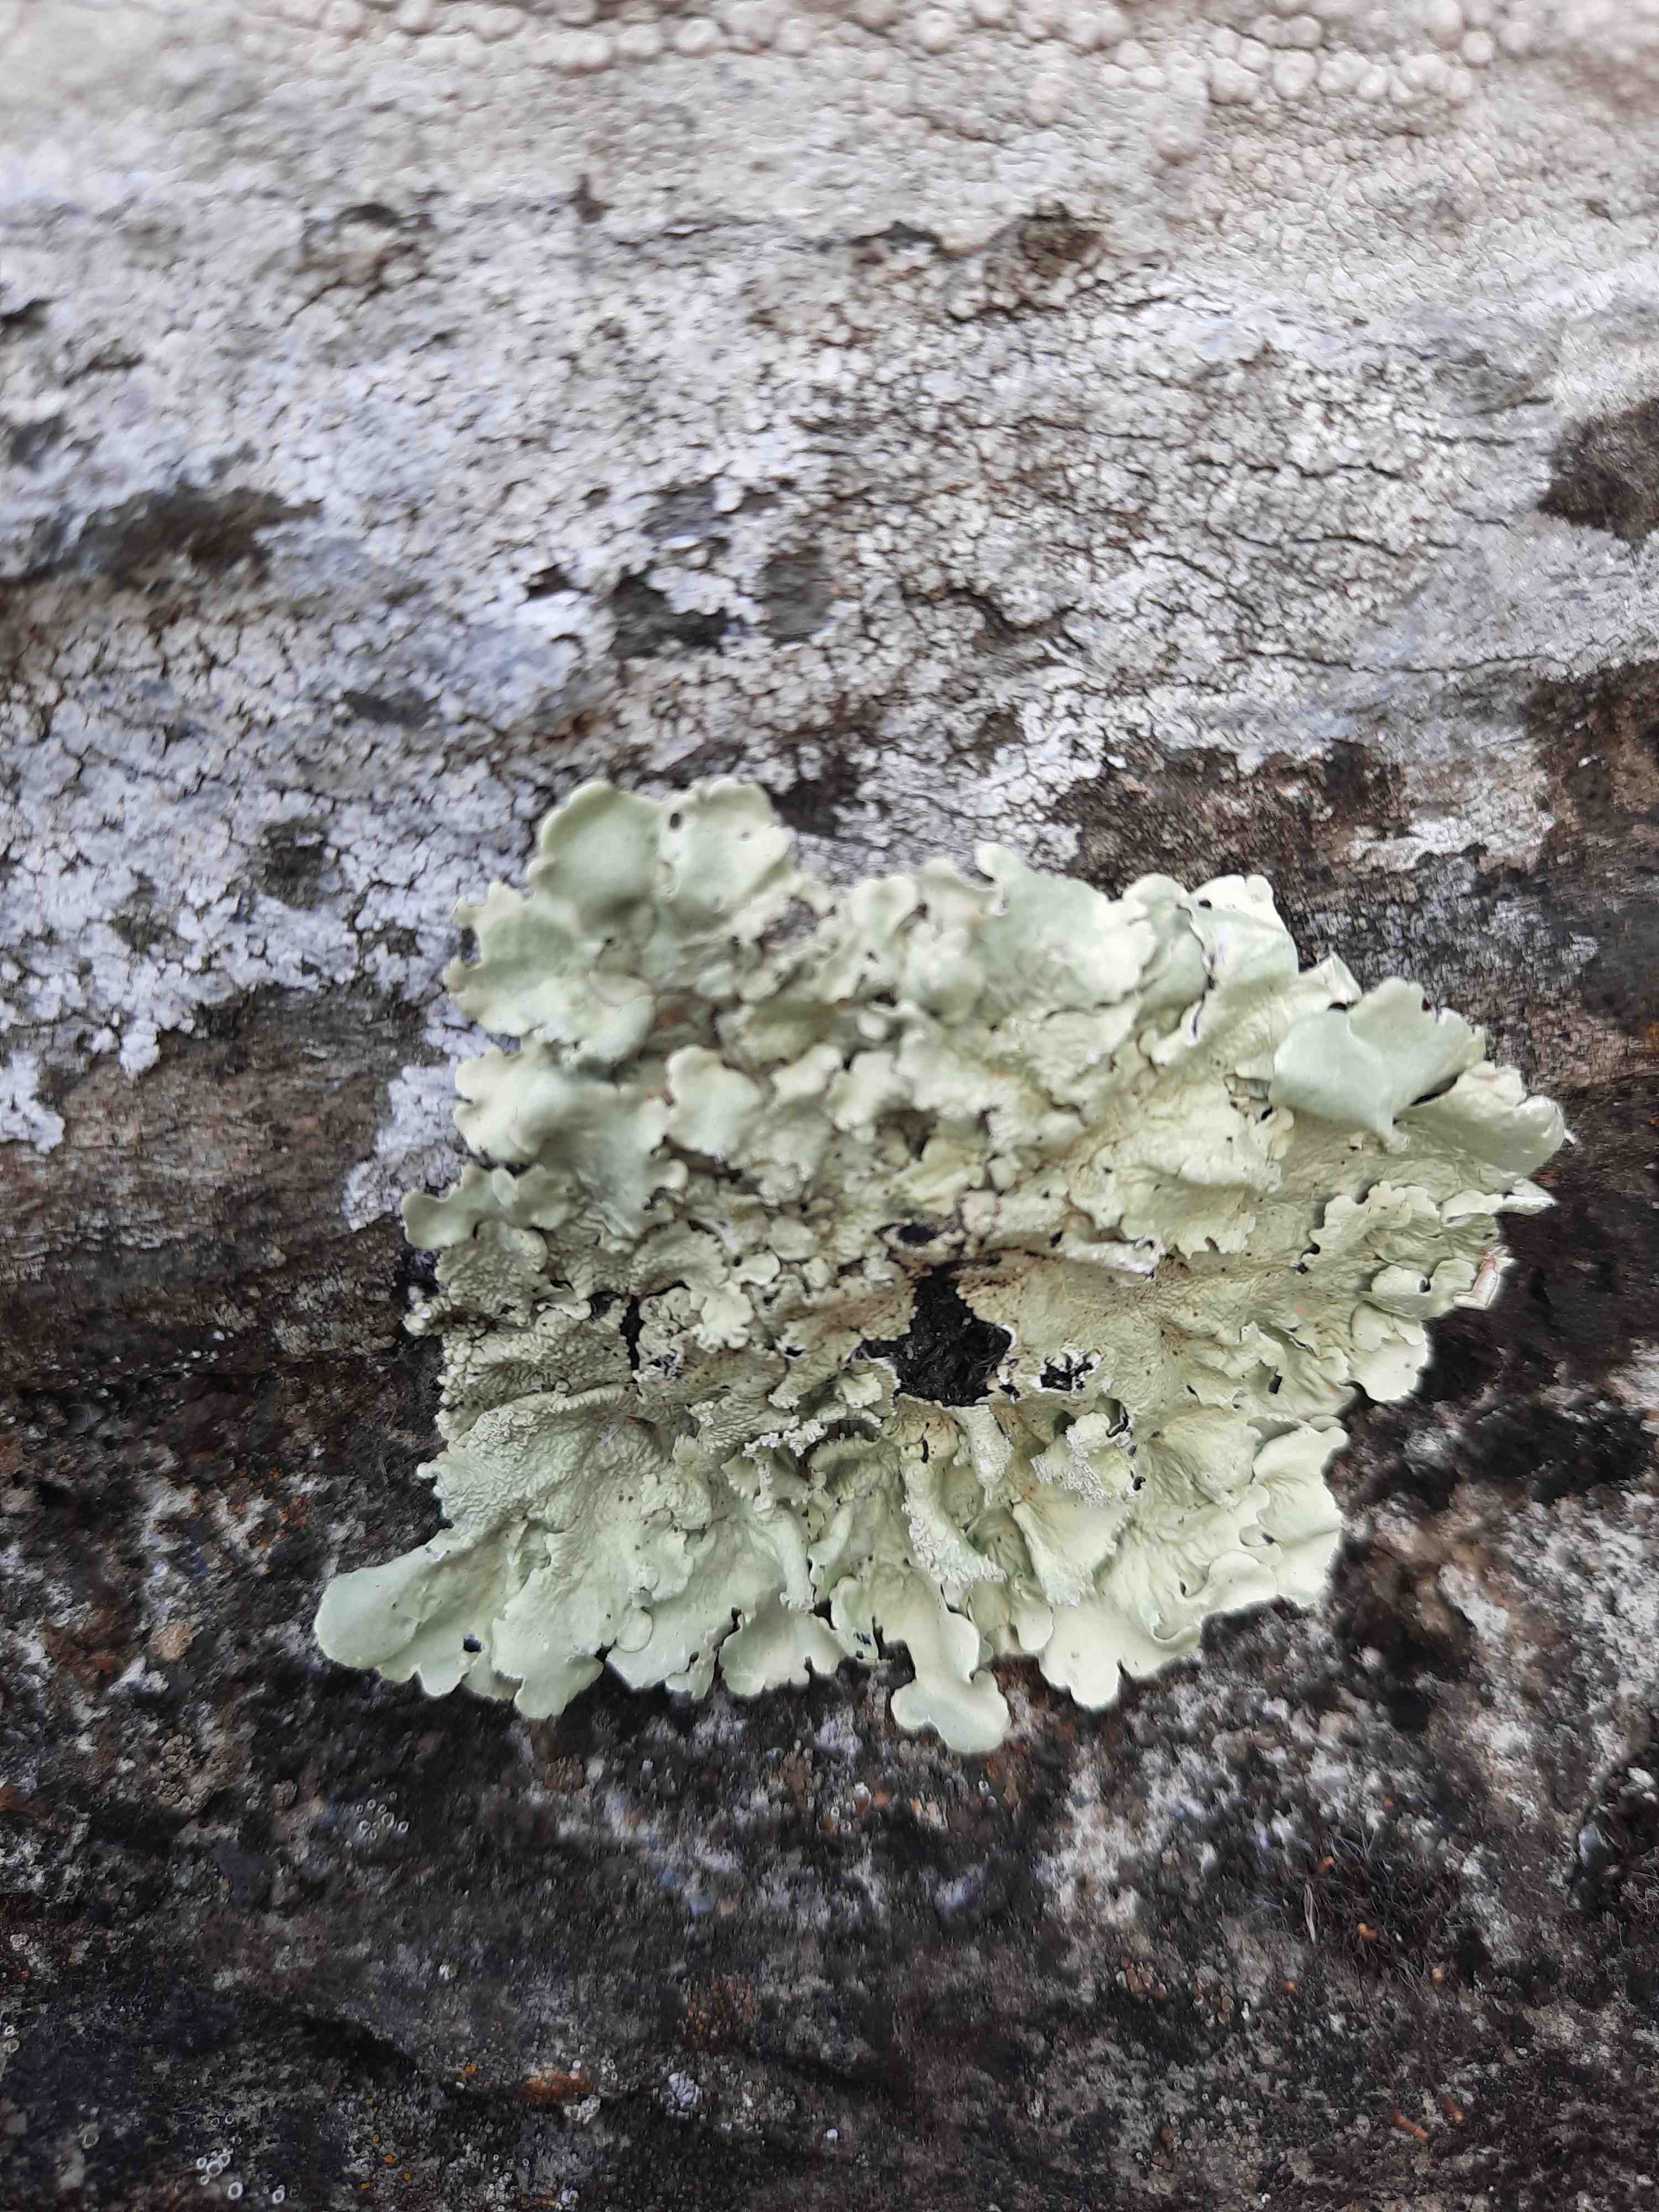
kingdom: Fungi
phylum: Ascomycota
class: Lecanoromycetes
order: Lecanorales
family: Parmeliaceae
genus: Flavoparmelia
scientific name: Flavoparmelia caperata
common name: gulgrøn skållav
